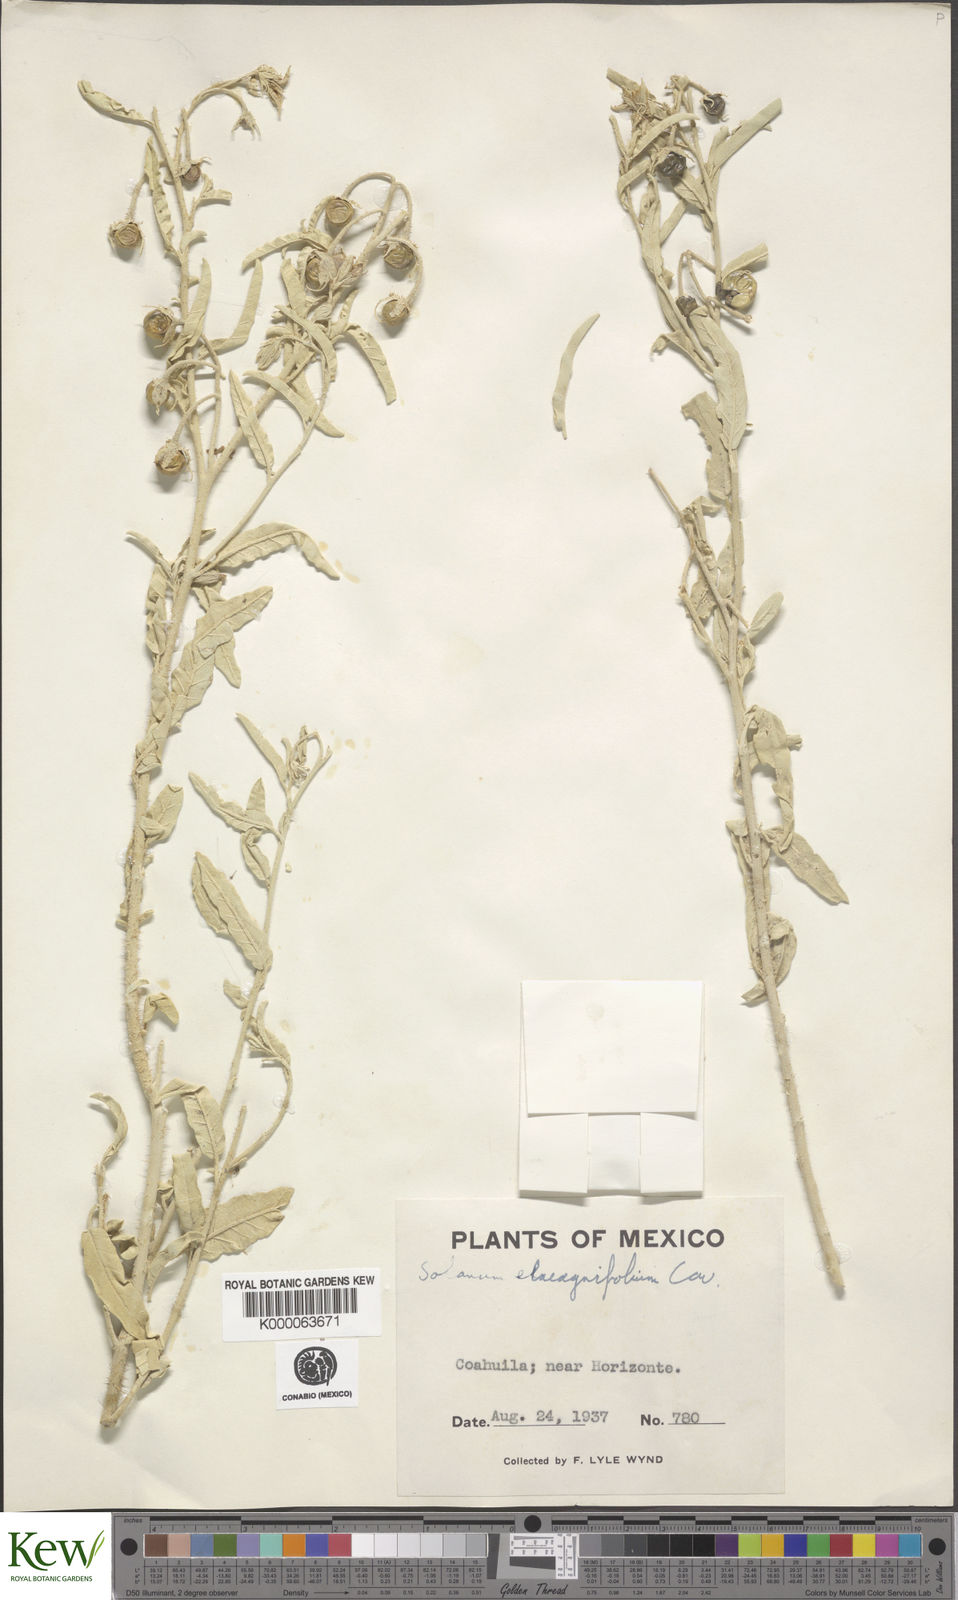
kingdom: Plantae
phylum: Tracheophyta
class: Magnoliopsida
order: Solanales
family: Solanaceae
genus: Solanum
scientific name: Solanum elaeagnifolium
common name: Silverleaf nightshade
